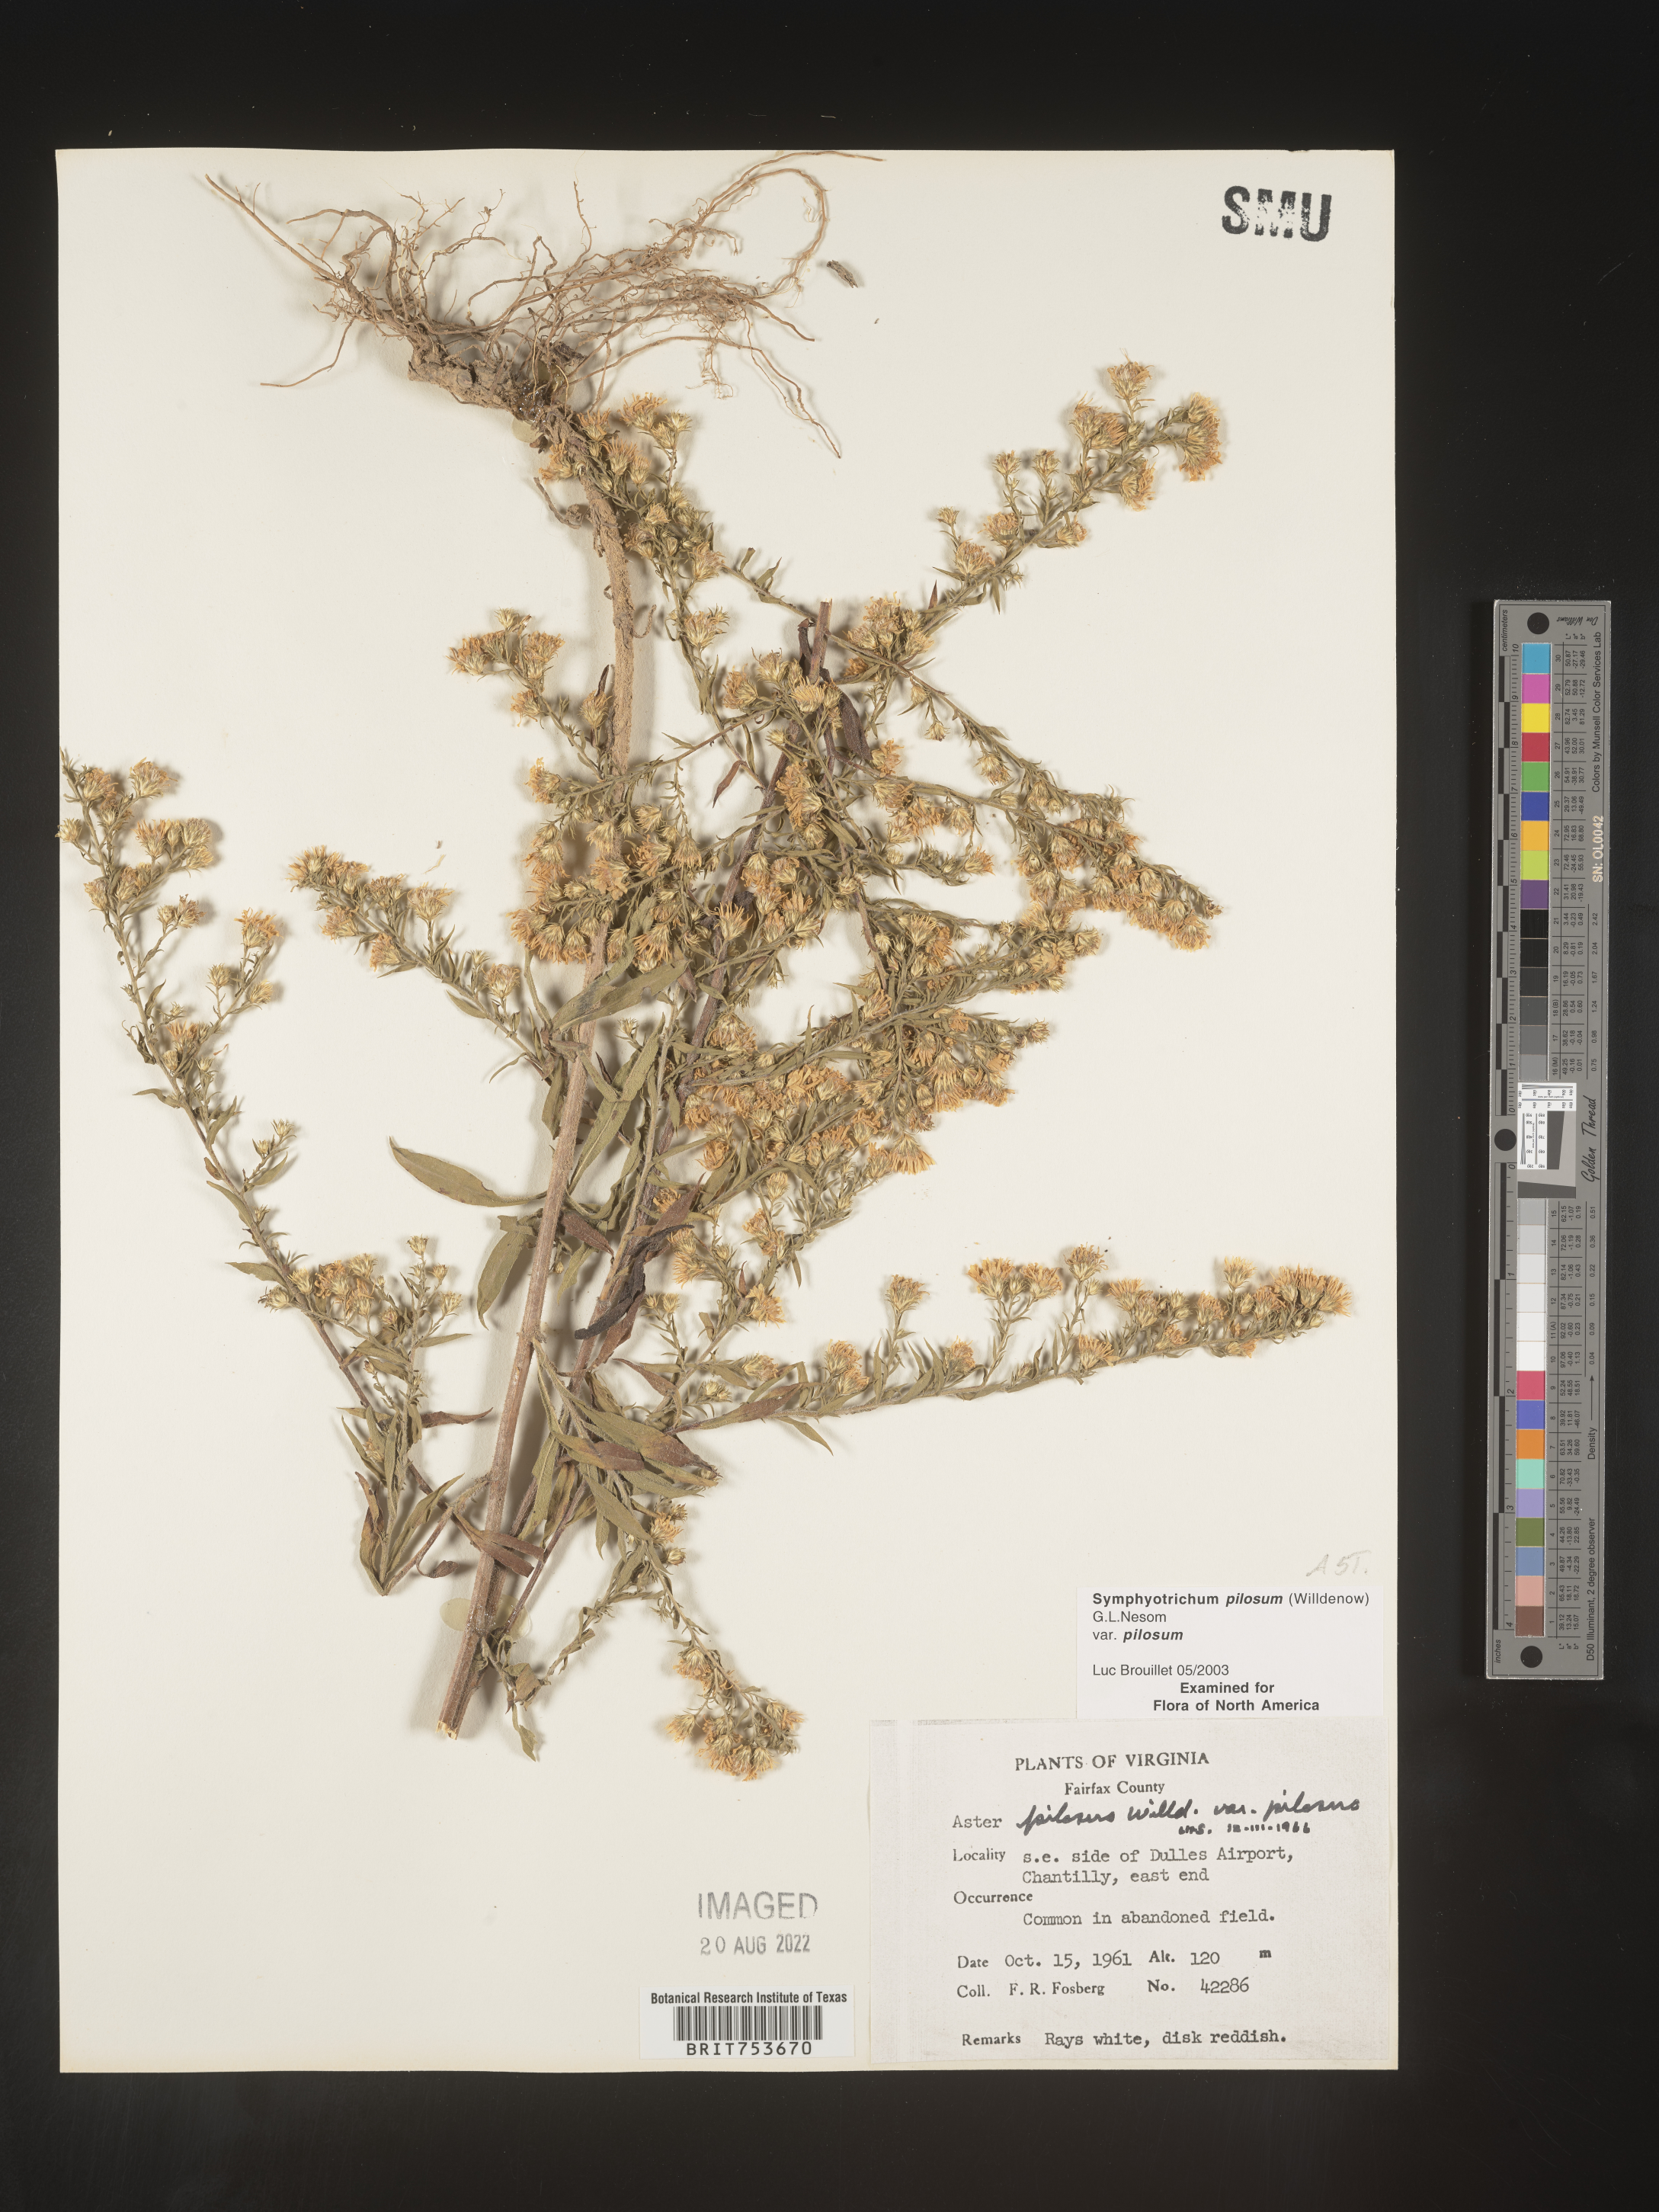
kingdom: Plantae
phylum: Tracheophyta
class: Magnoliopsida
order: Asterales
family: Asteraceae
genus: Symphyotrichum
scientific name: Symphyotrichum pilosum
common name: Awl aster
